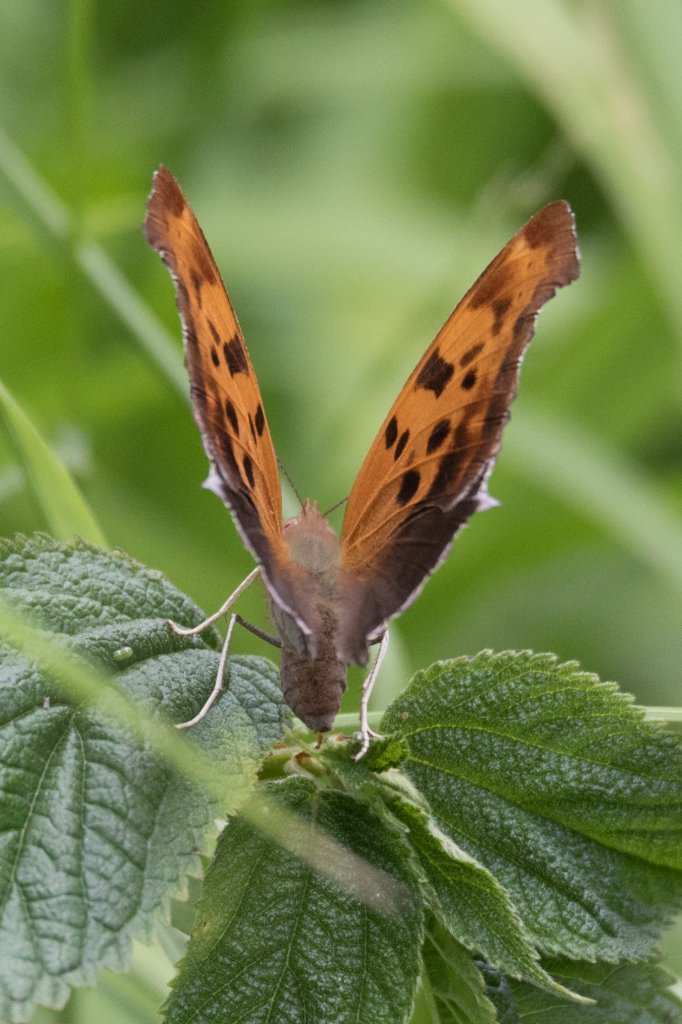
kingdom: Animalia
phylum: Arthropoda
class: Insecta
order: Lepidoptera
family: Nymphalidae
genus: Polygonia
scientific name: Polygonia interrogationis
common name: Question Mark
